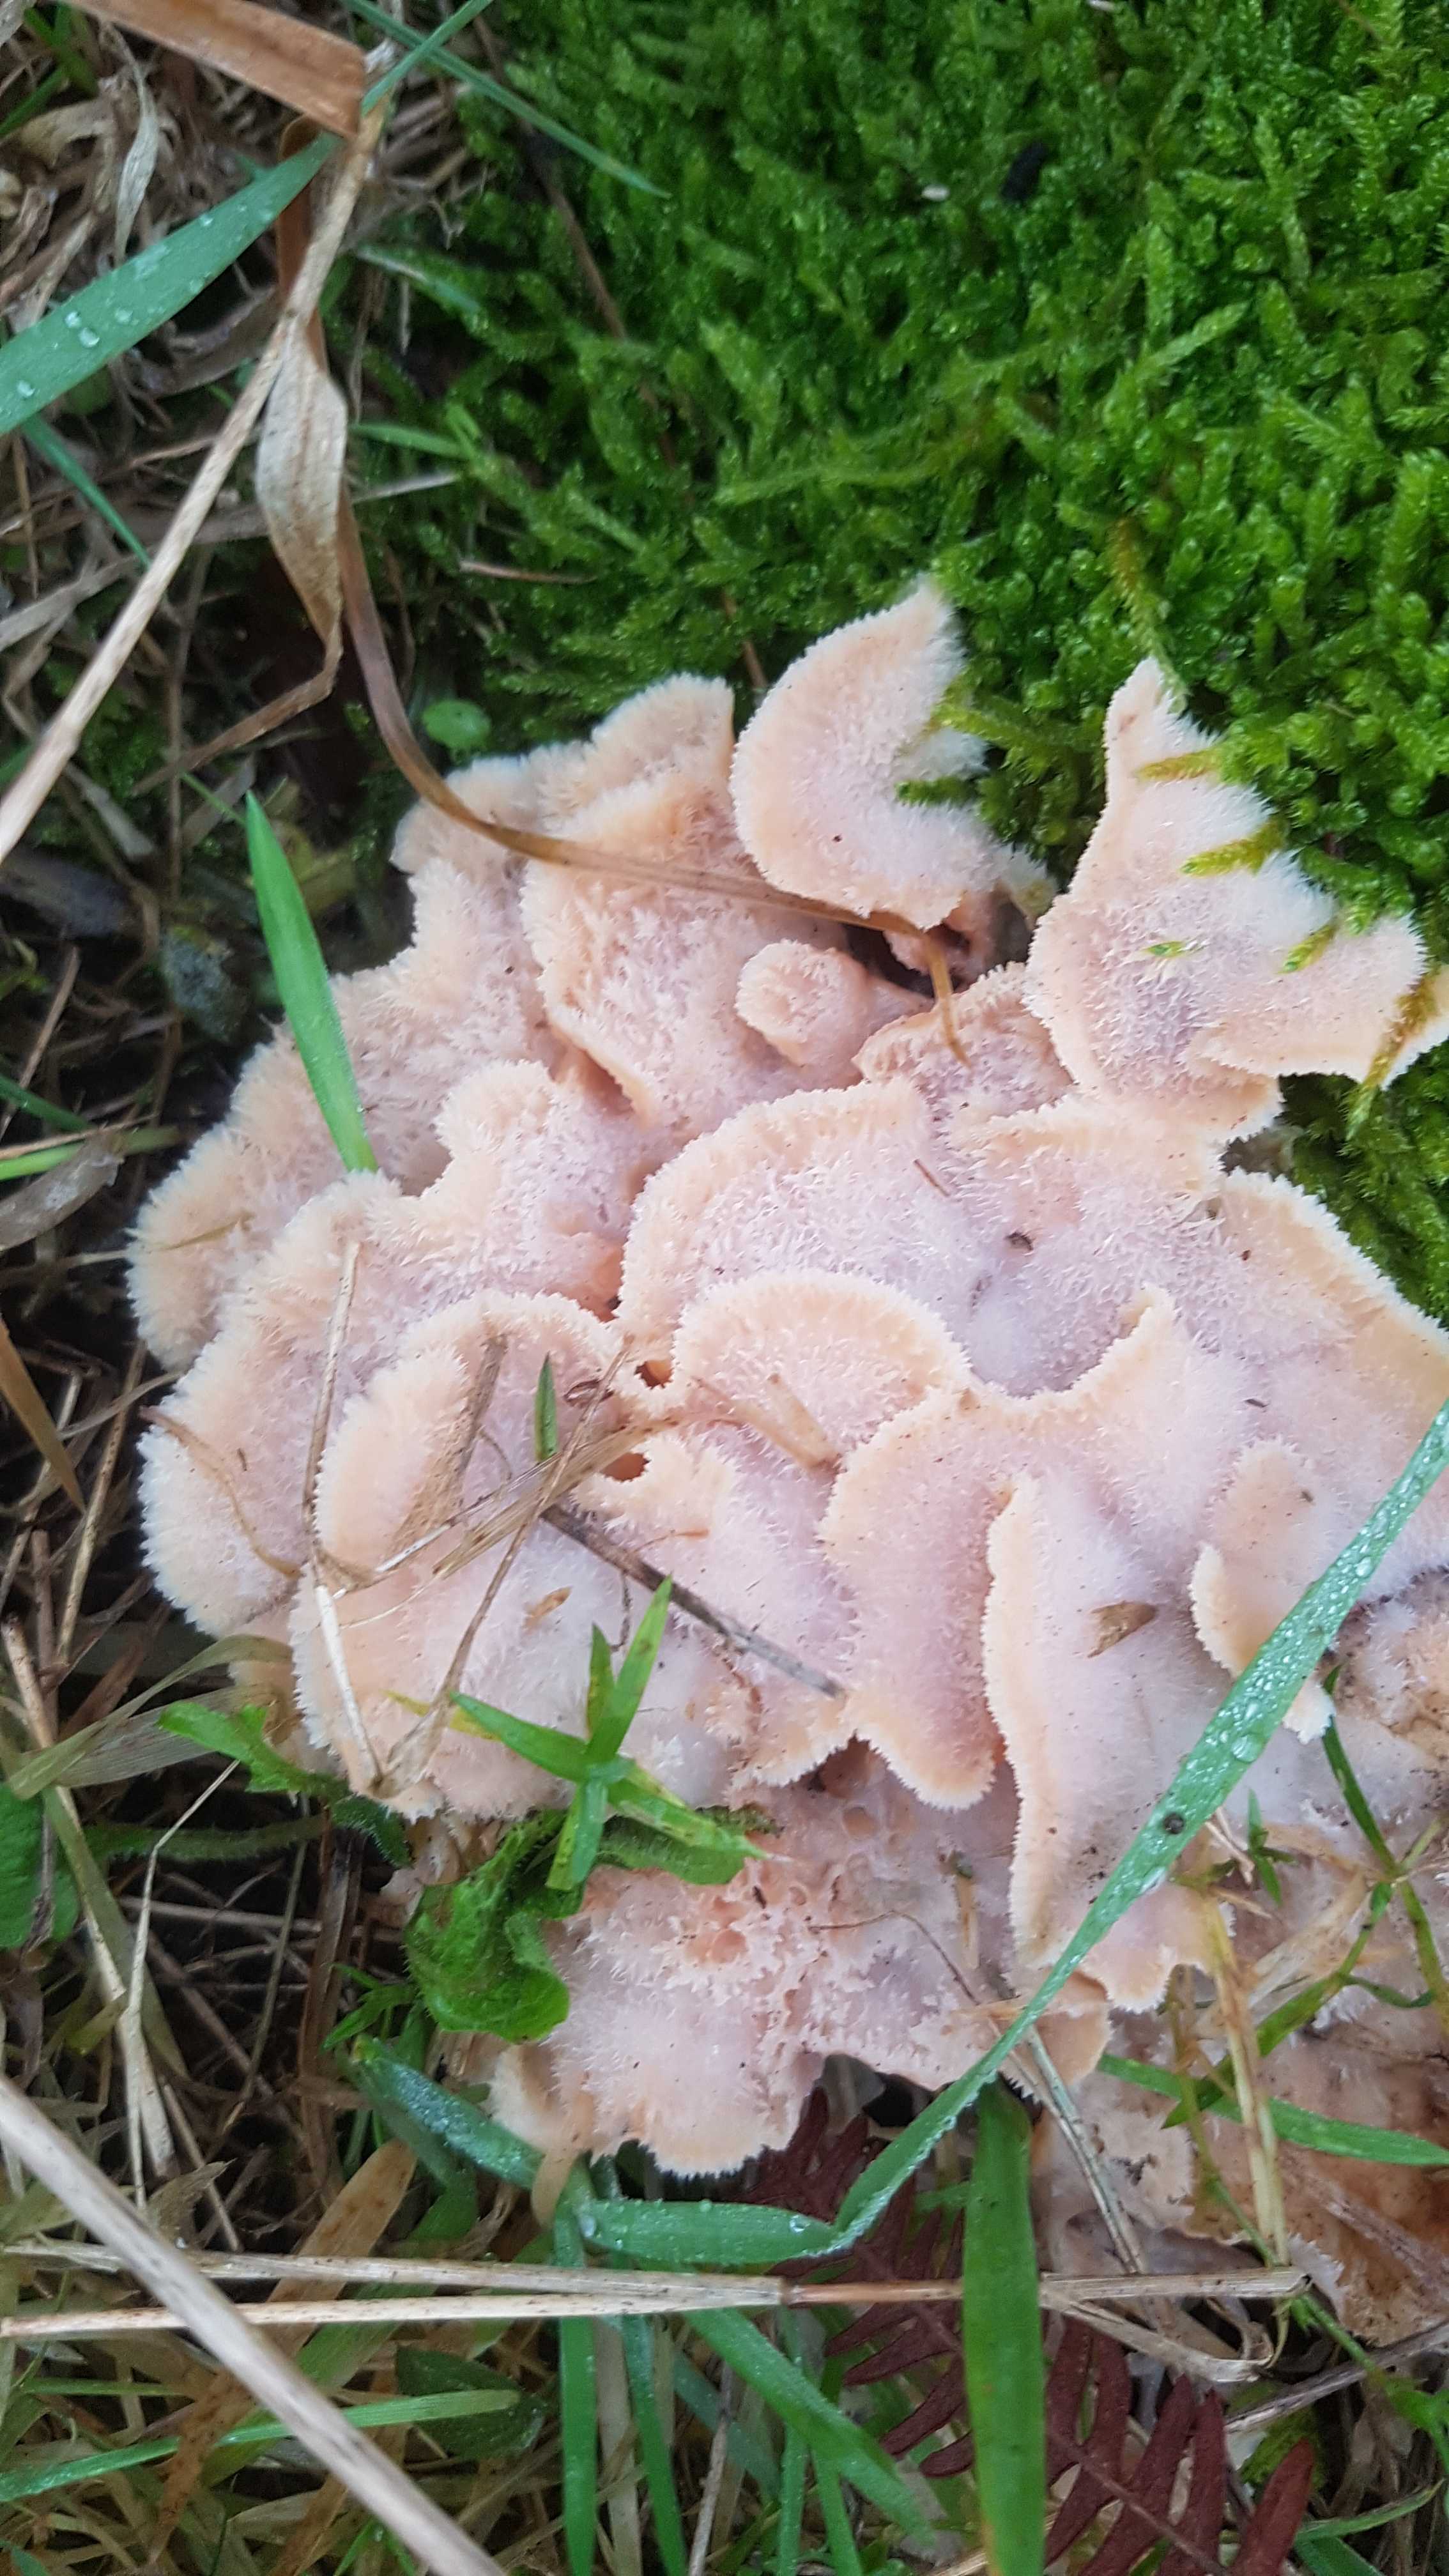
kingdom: Fungi
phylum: Basidiomycota
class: Agaricomycetes
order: Polyporales
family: Meruliaceae
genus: Phlebia
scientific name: Phlebia tremellosa
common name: bævrende åresvamp
